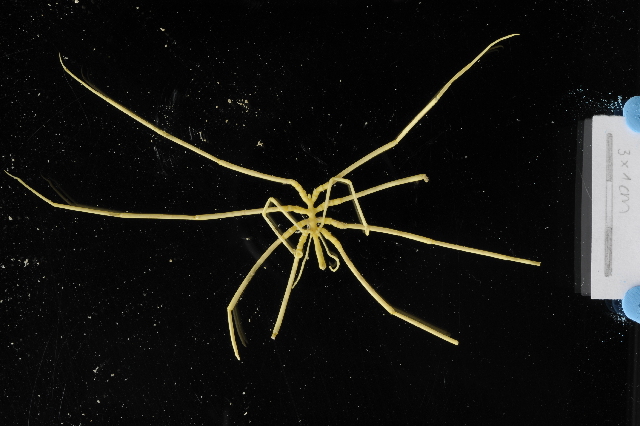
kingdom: Animalia
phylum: Arthropoda
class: Pycnogonida
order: Pantopoda
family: Colossendeidae
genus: Colossendeis
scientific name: Colossendeis drakei
